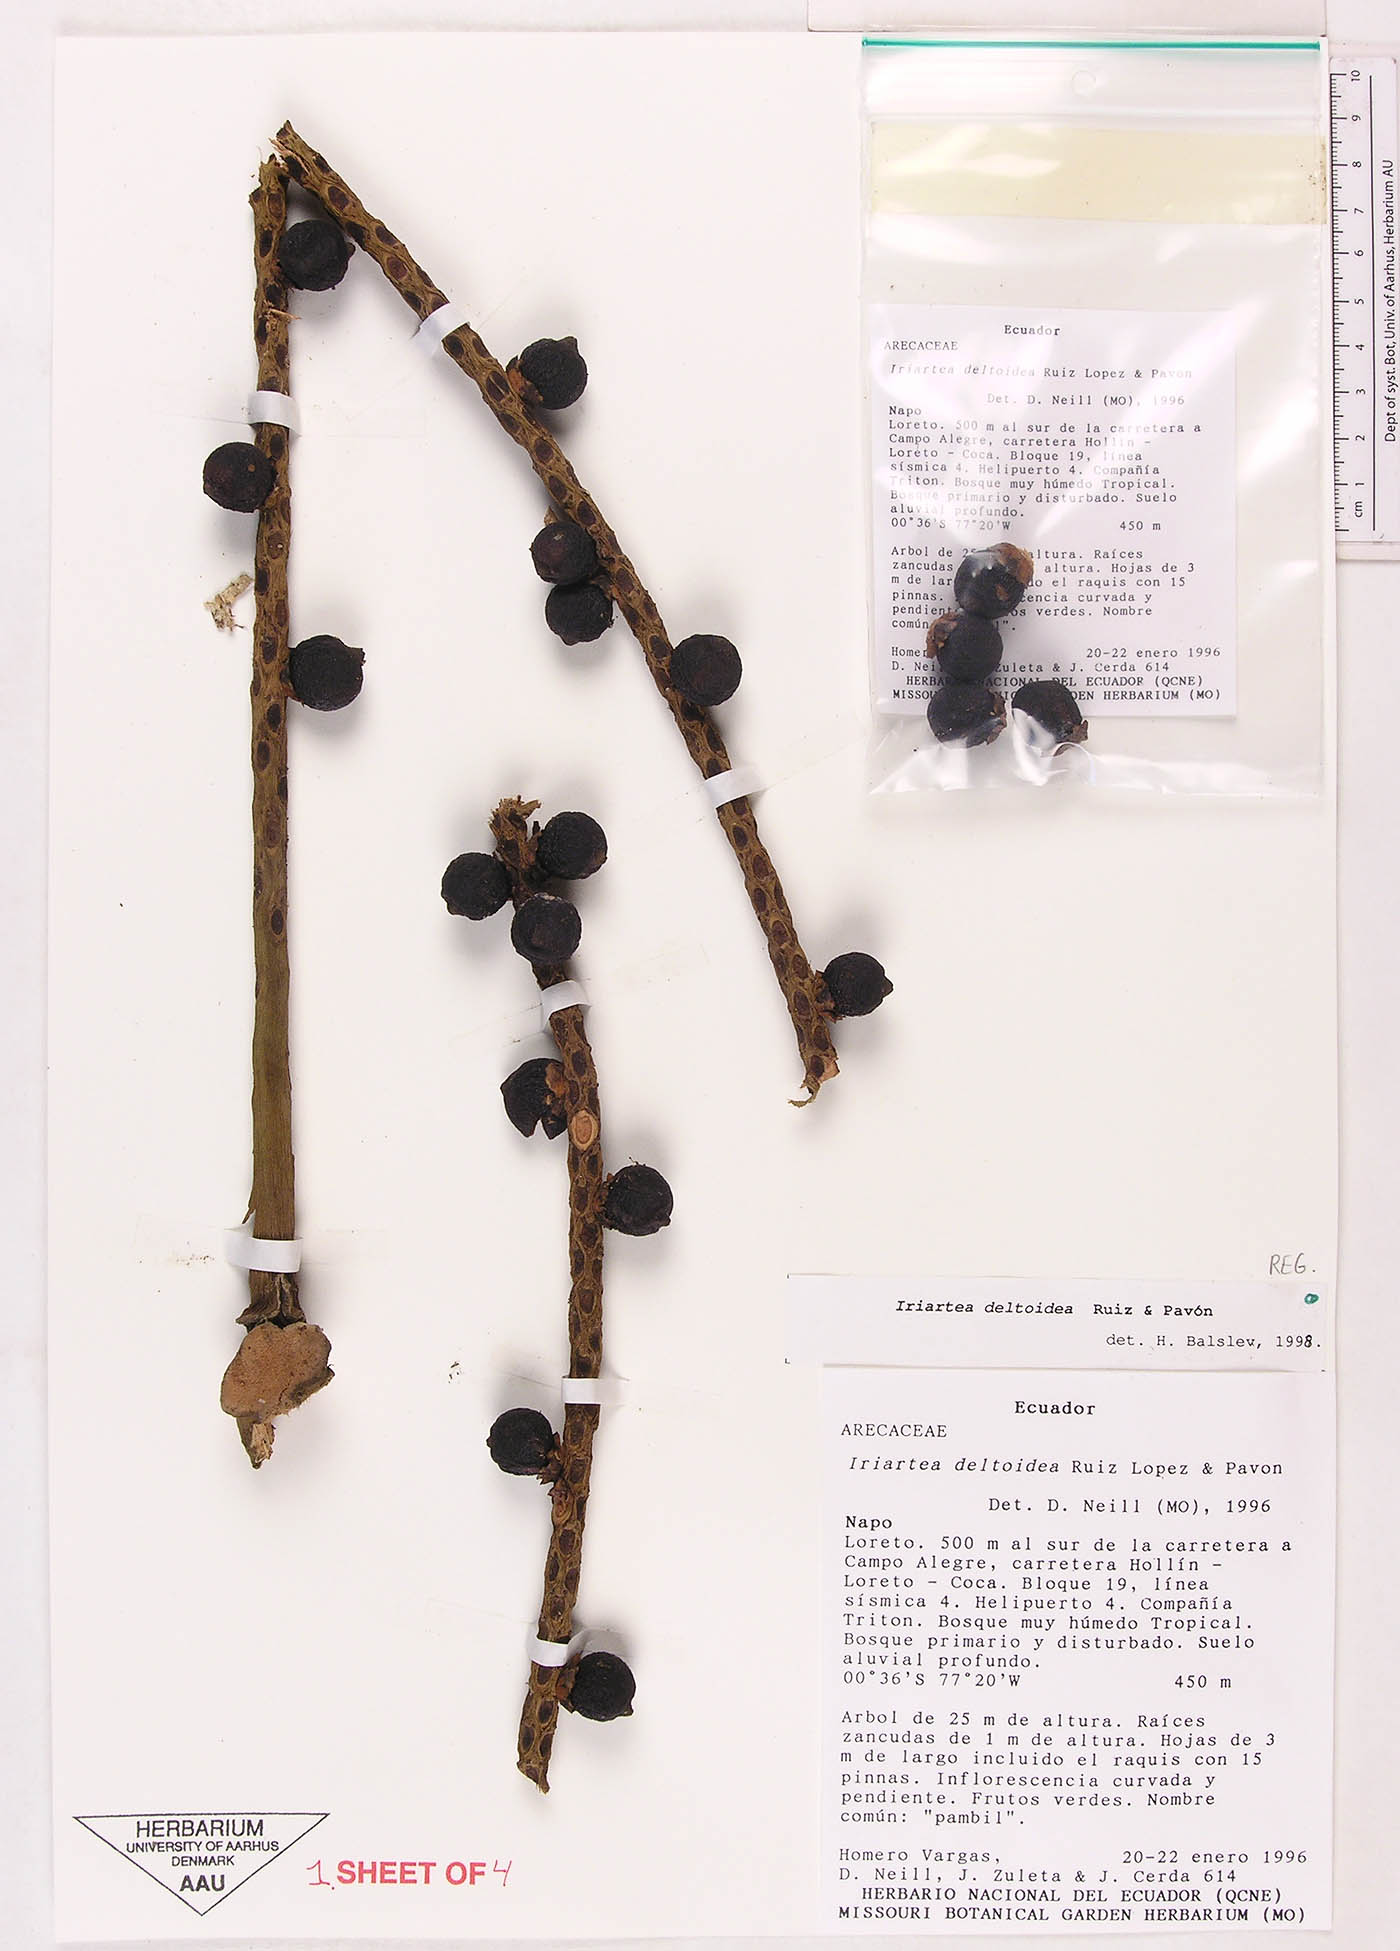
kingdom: Plantae
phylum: Tracheophyta
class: Liliopsida
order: Arecales
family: Arecaceae
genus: Iriartea
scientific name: Iriartea deltoidea
